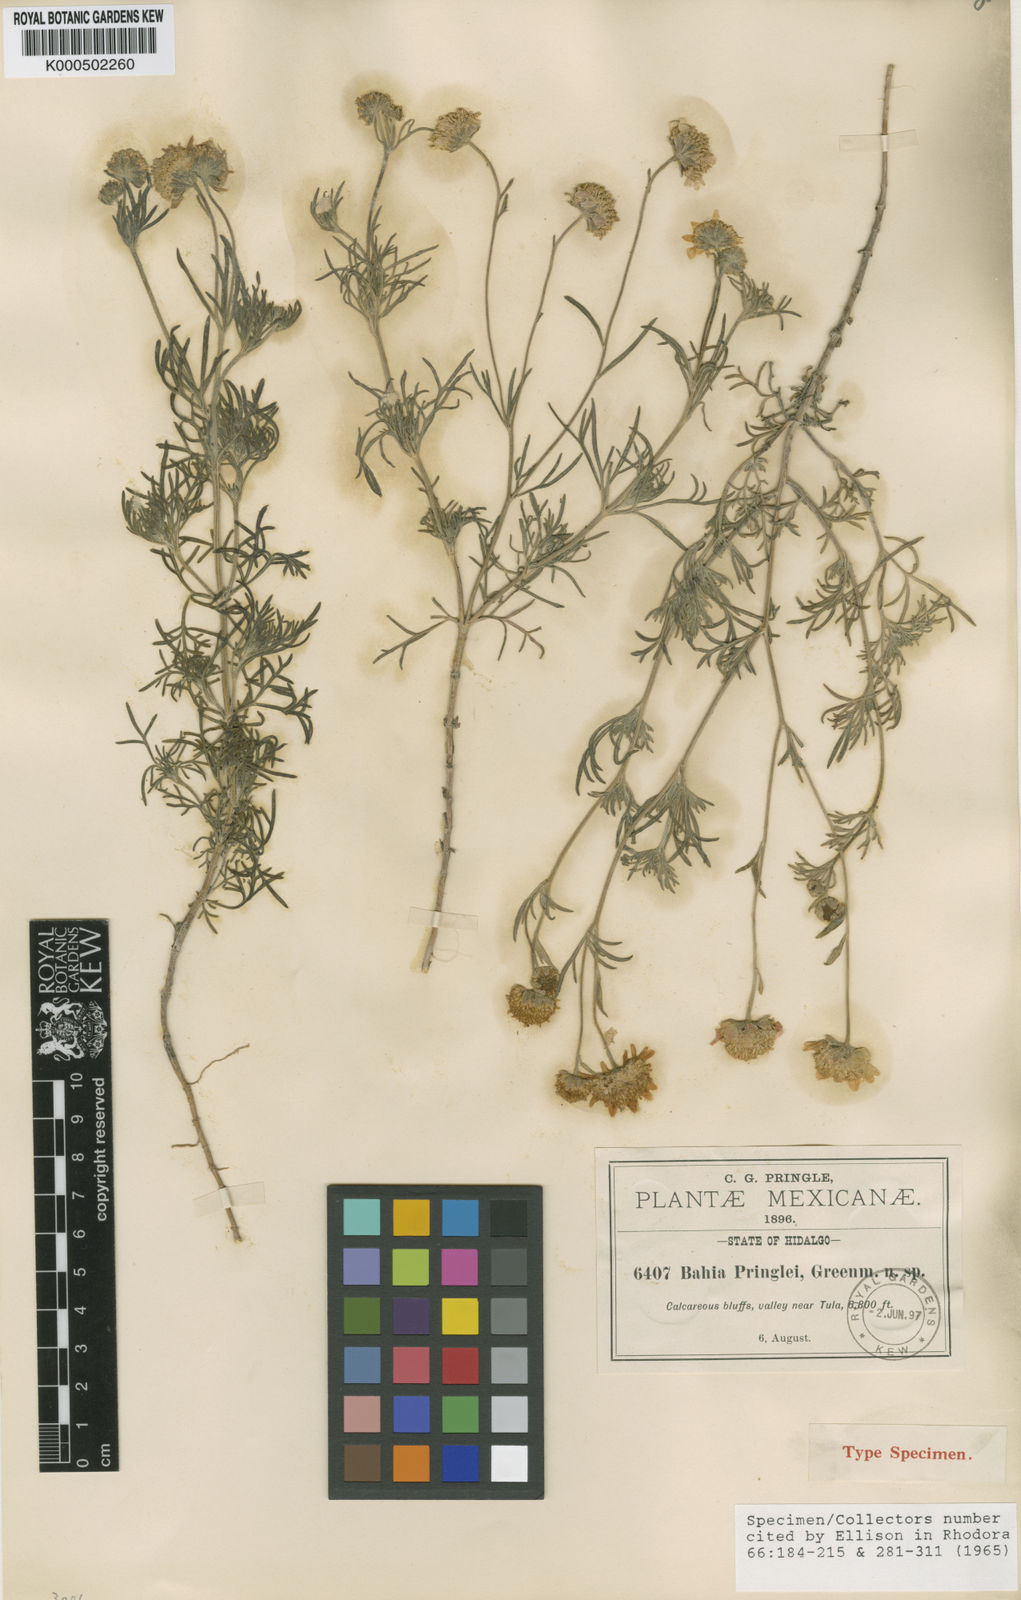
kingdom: Plantae
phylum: Tracheophyta
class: Magnoliopsida
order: Asterales
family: Asteraceae
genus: Picradeniopsis
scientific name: Picradeniopsis pringlei
